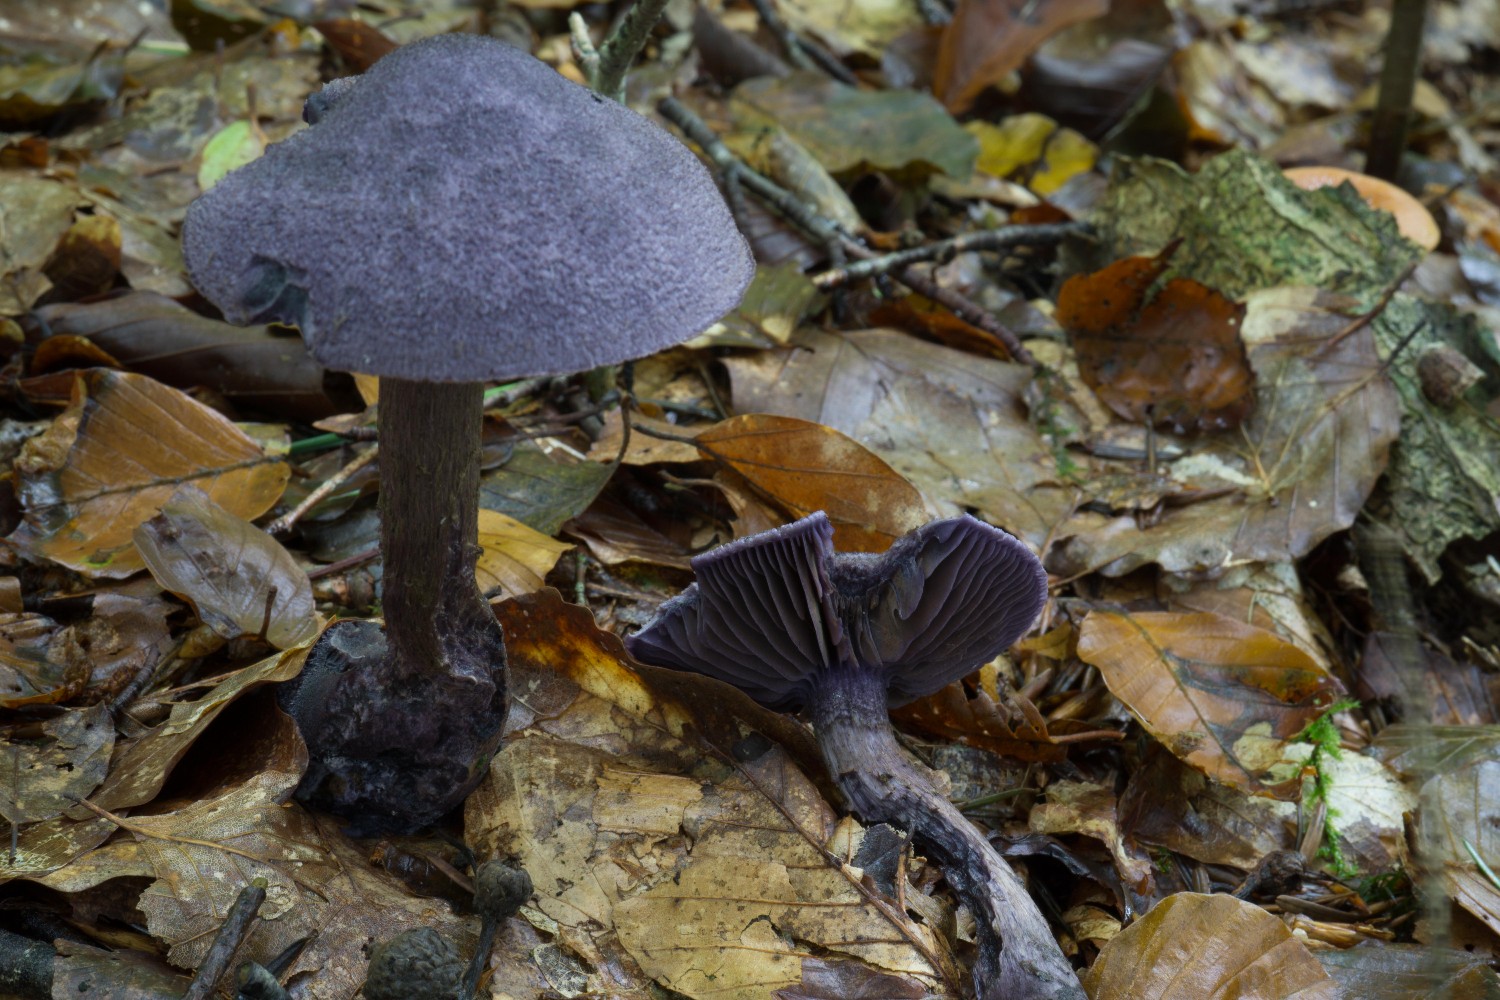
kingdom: Fungi
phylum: Basidiomycota
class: Agaricomycetes
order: Agaricales
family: Cortinariaceae
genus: Cortinarius
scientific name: Cortinarius violaceus
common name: mørkviolet slørhat
